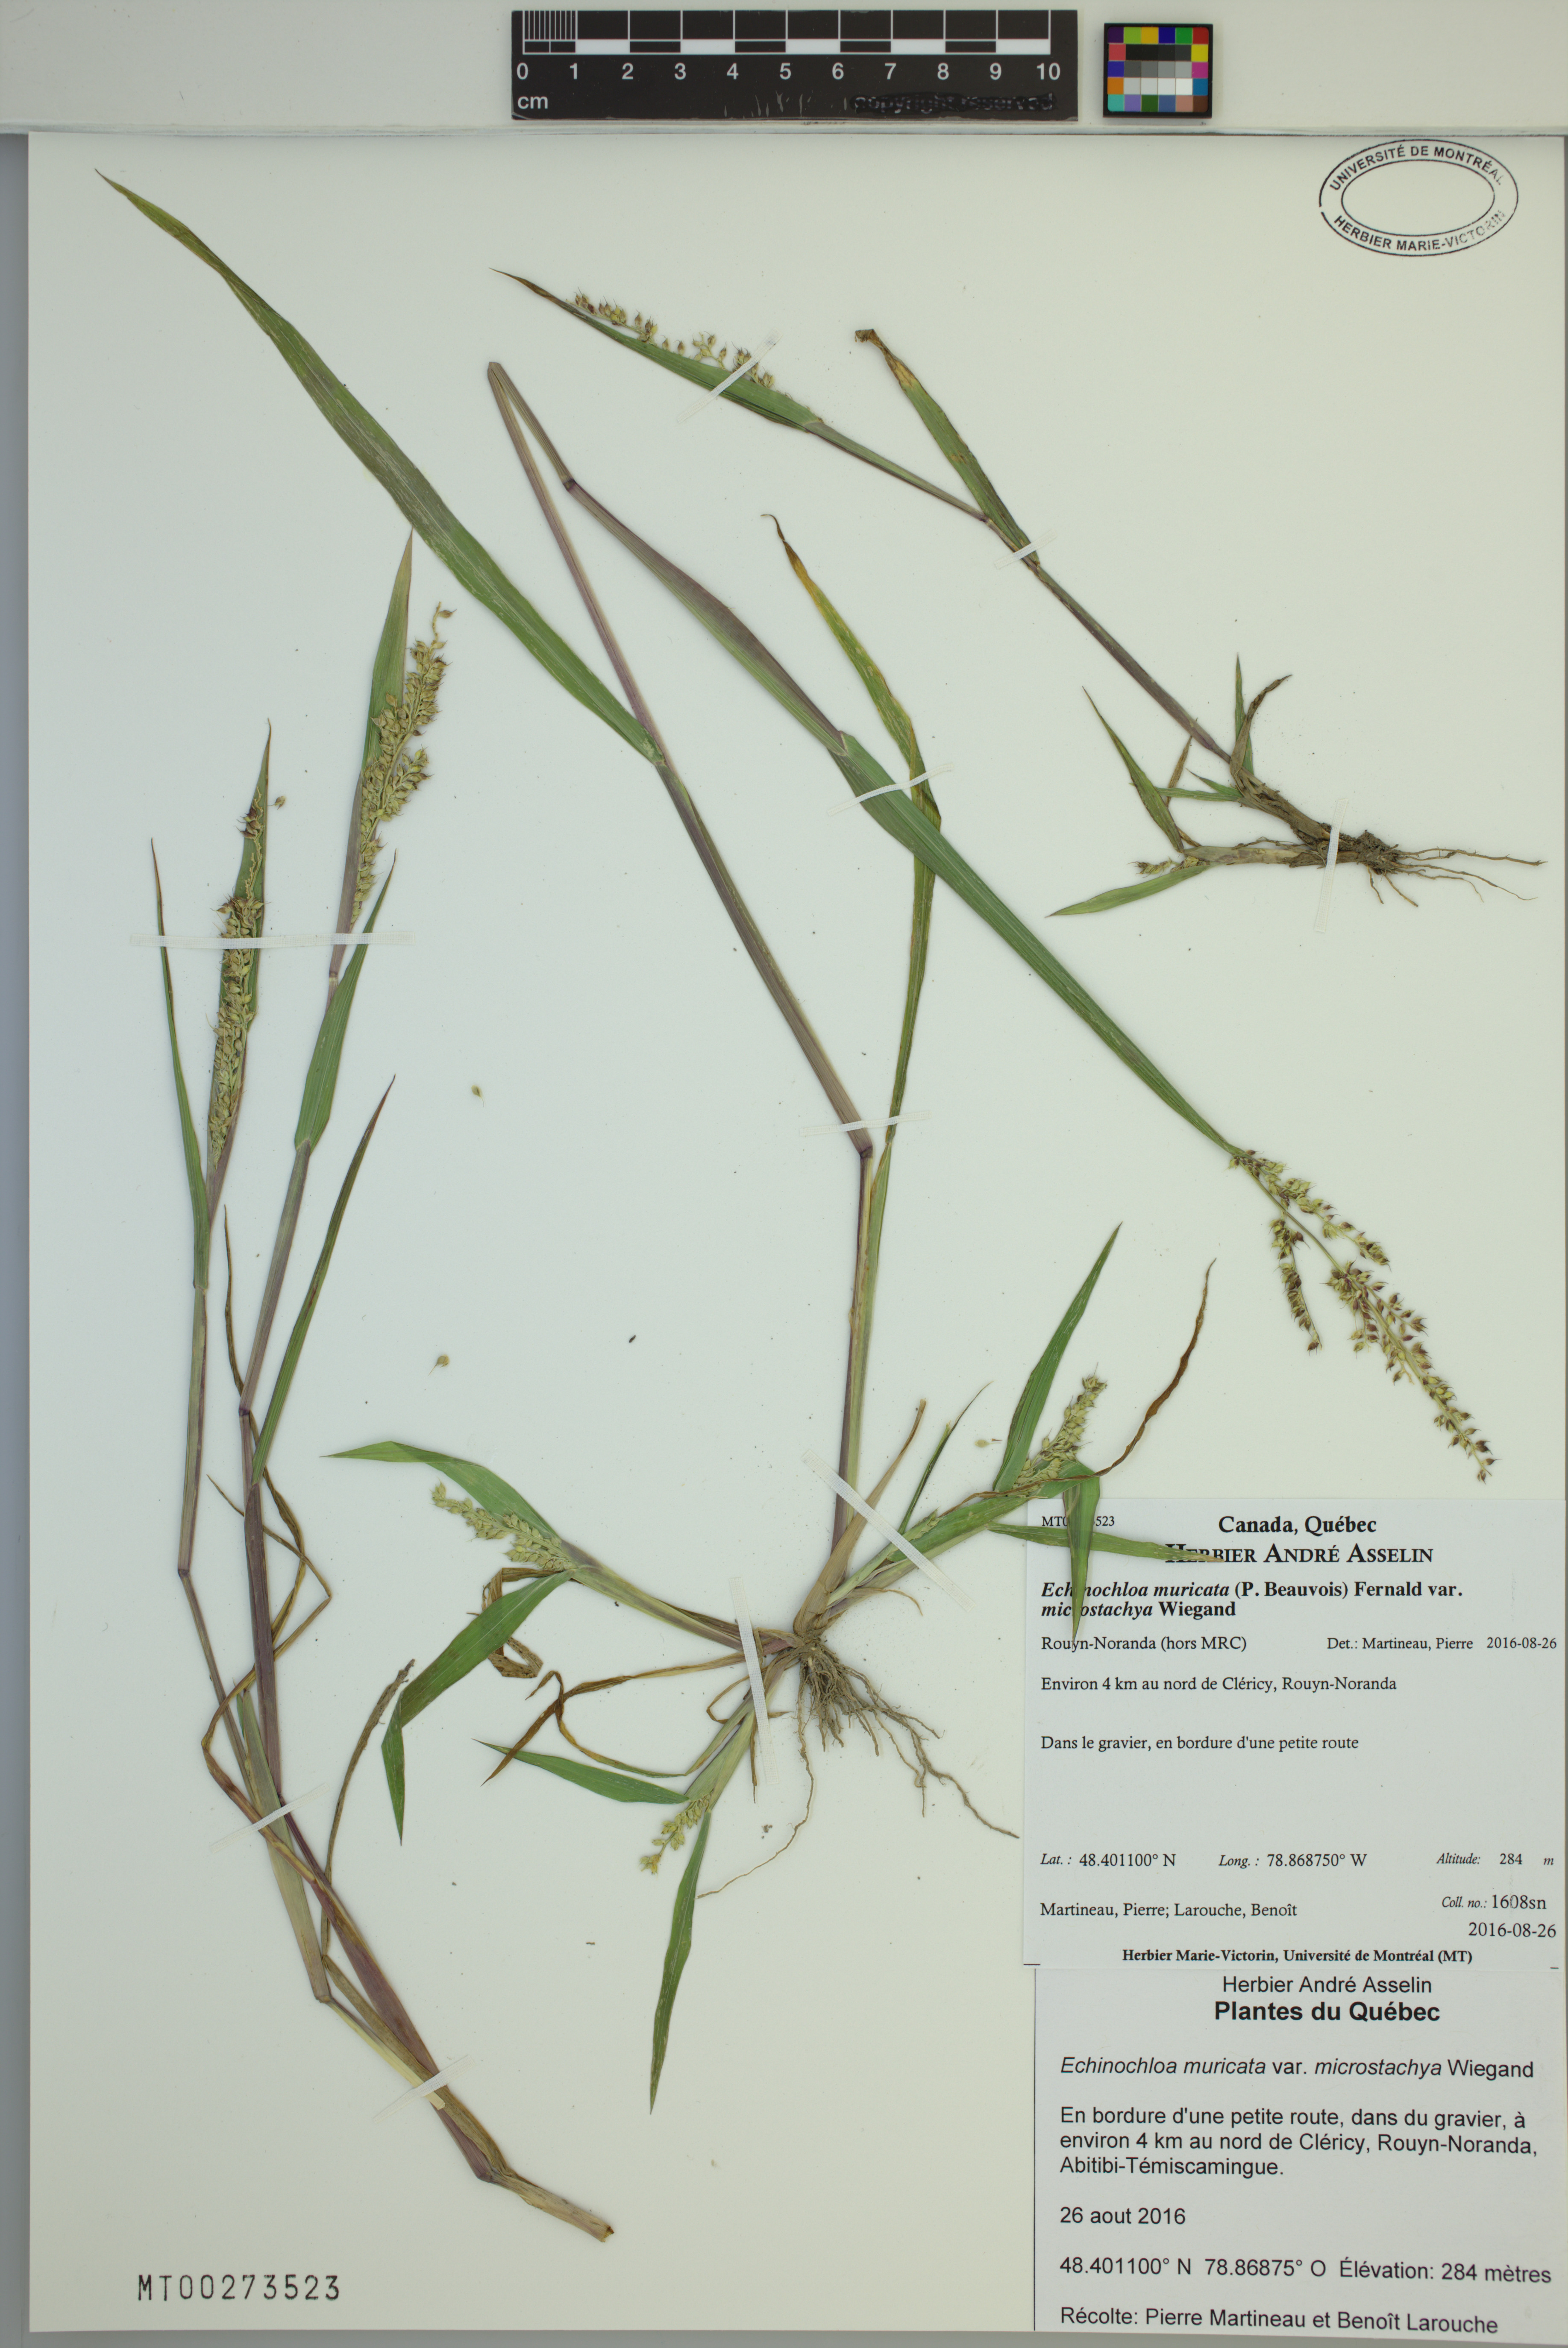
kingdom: Plantae
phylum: Tracheophyta
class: Liliopsida
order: Poales
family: Poaceae
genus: Echinochloa
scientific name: Echinochloa muricata
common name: American barnyard grass
